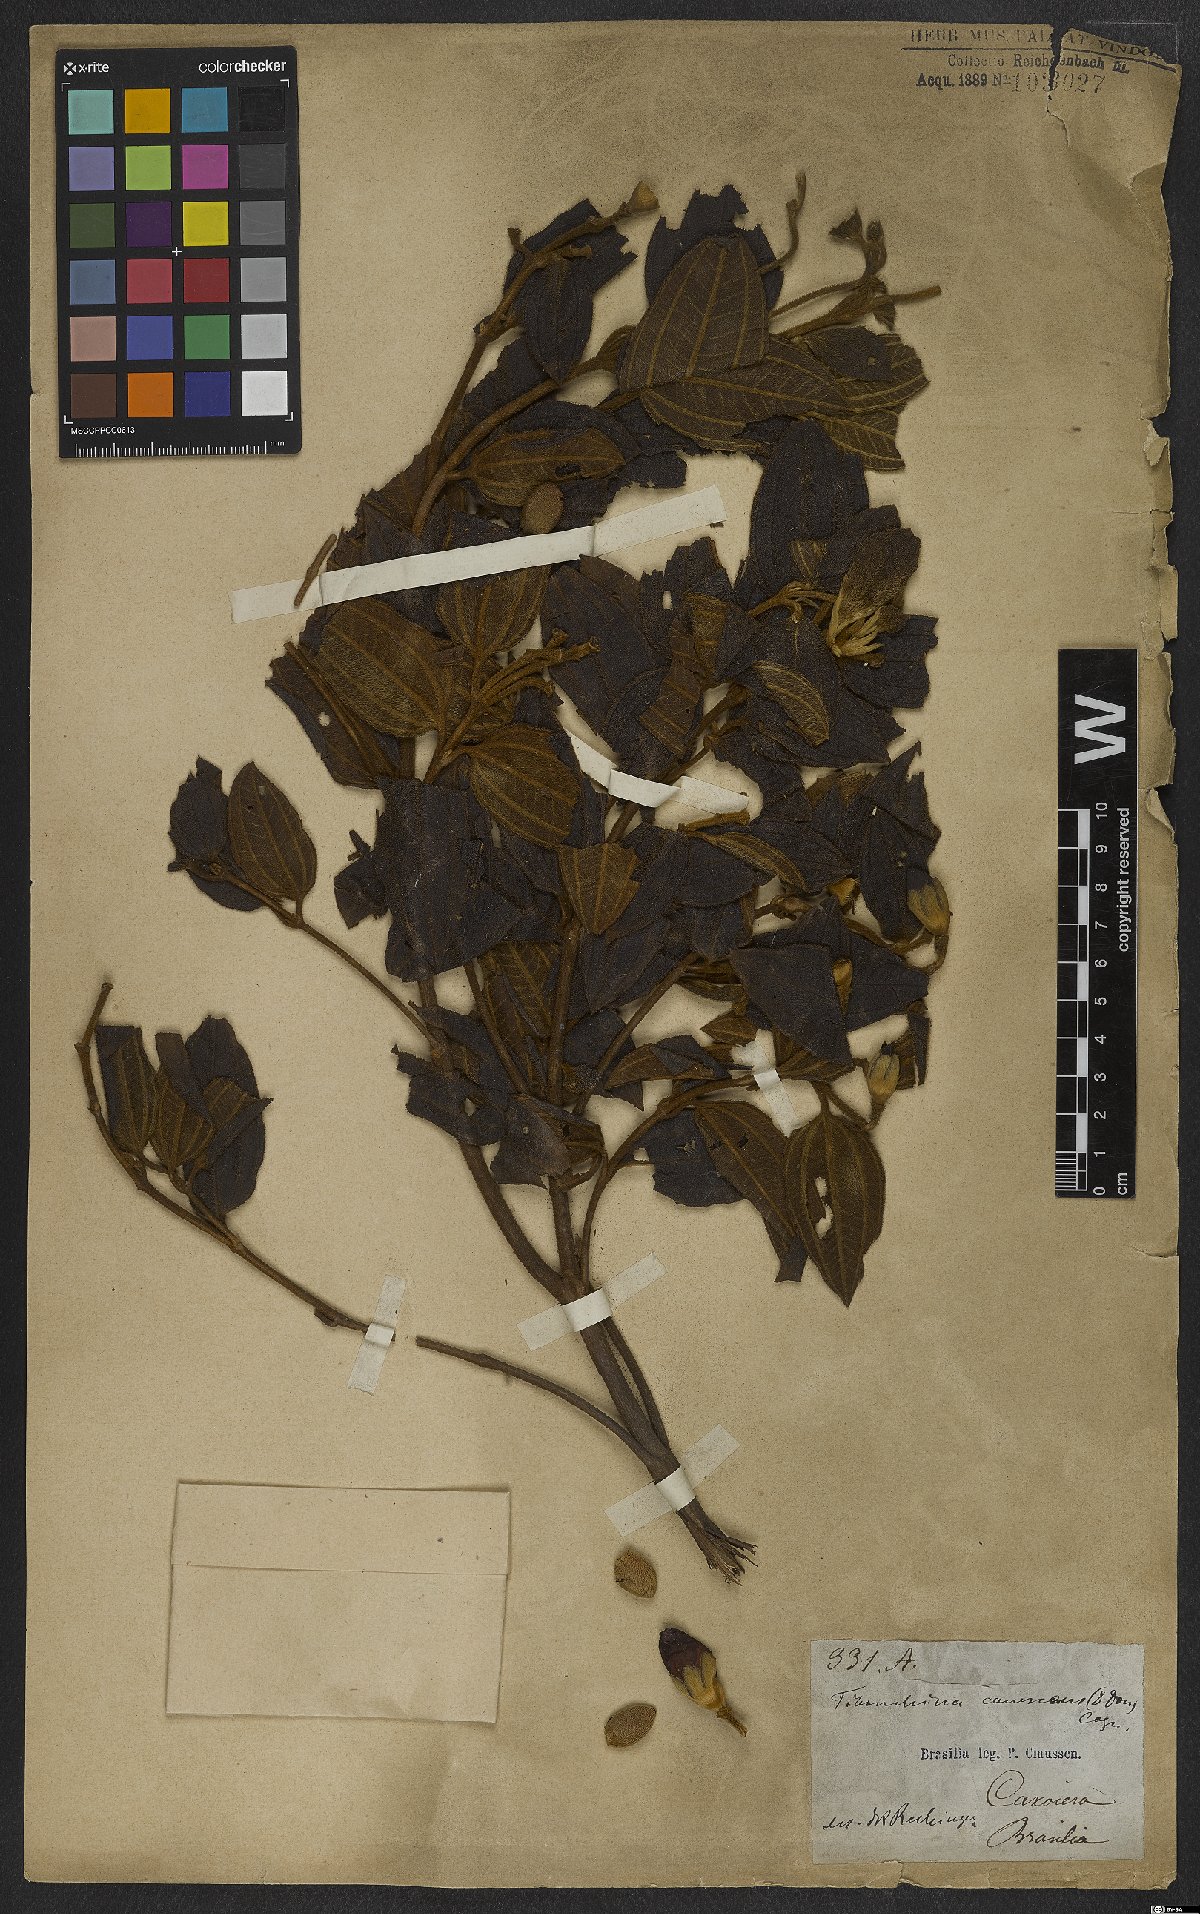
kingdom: Plantae
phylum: Tracheophyta
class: Magnoliopsida
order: Myrtales
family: Melastomataceae
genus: Pleroma
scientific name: Pleroma canescens
